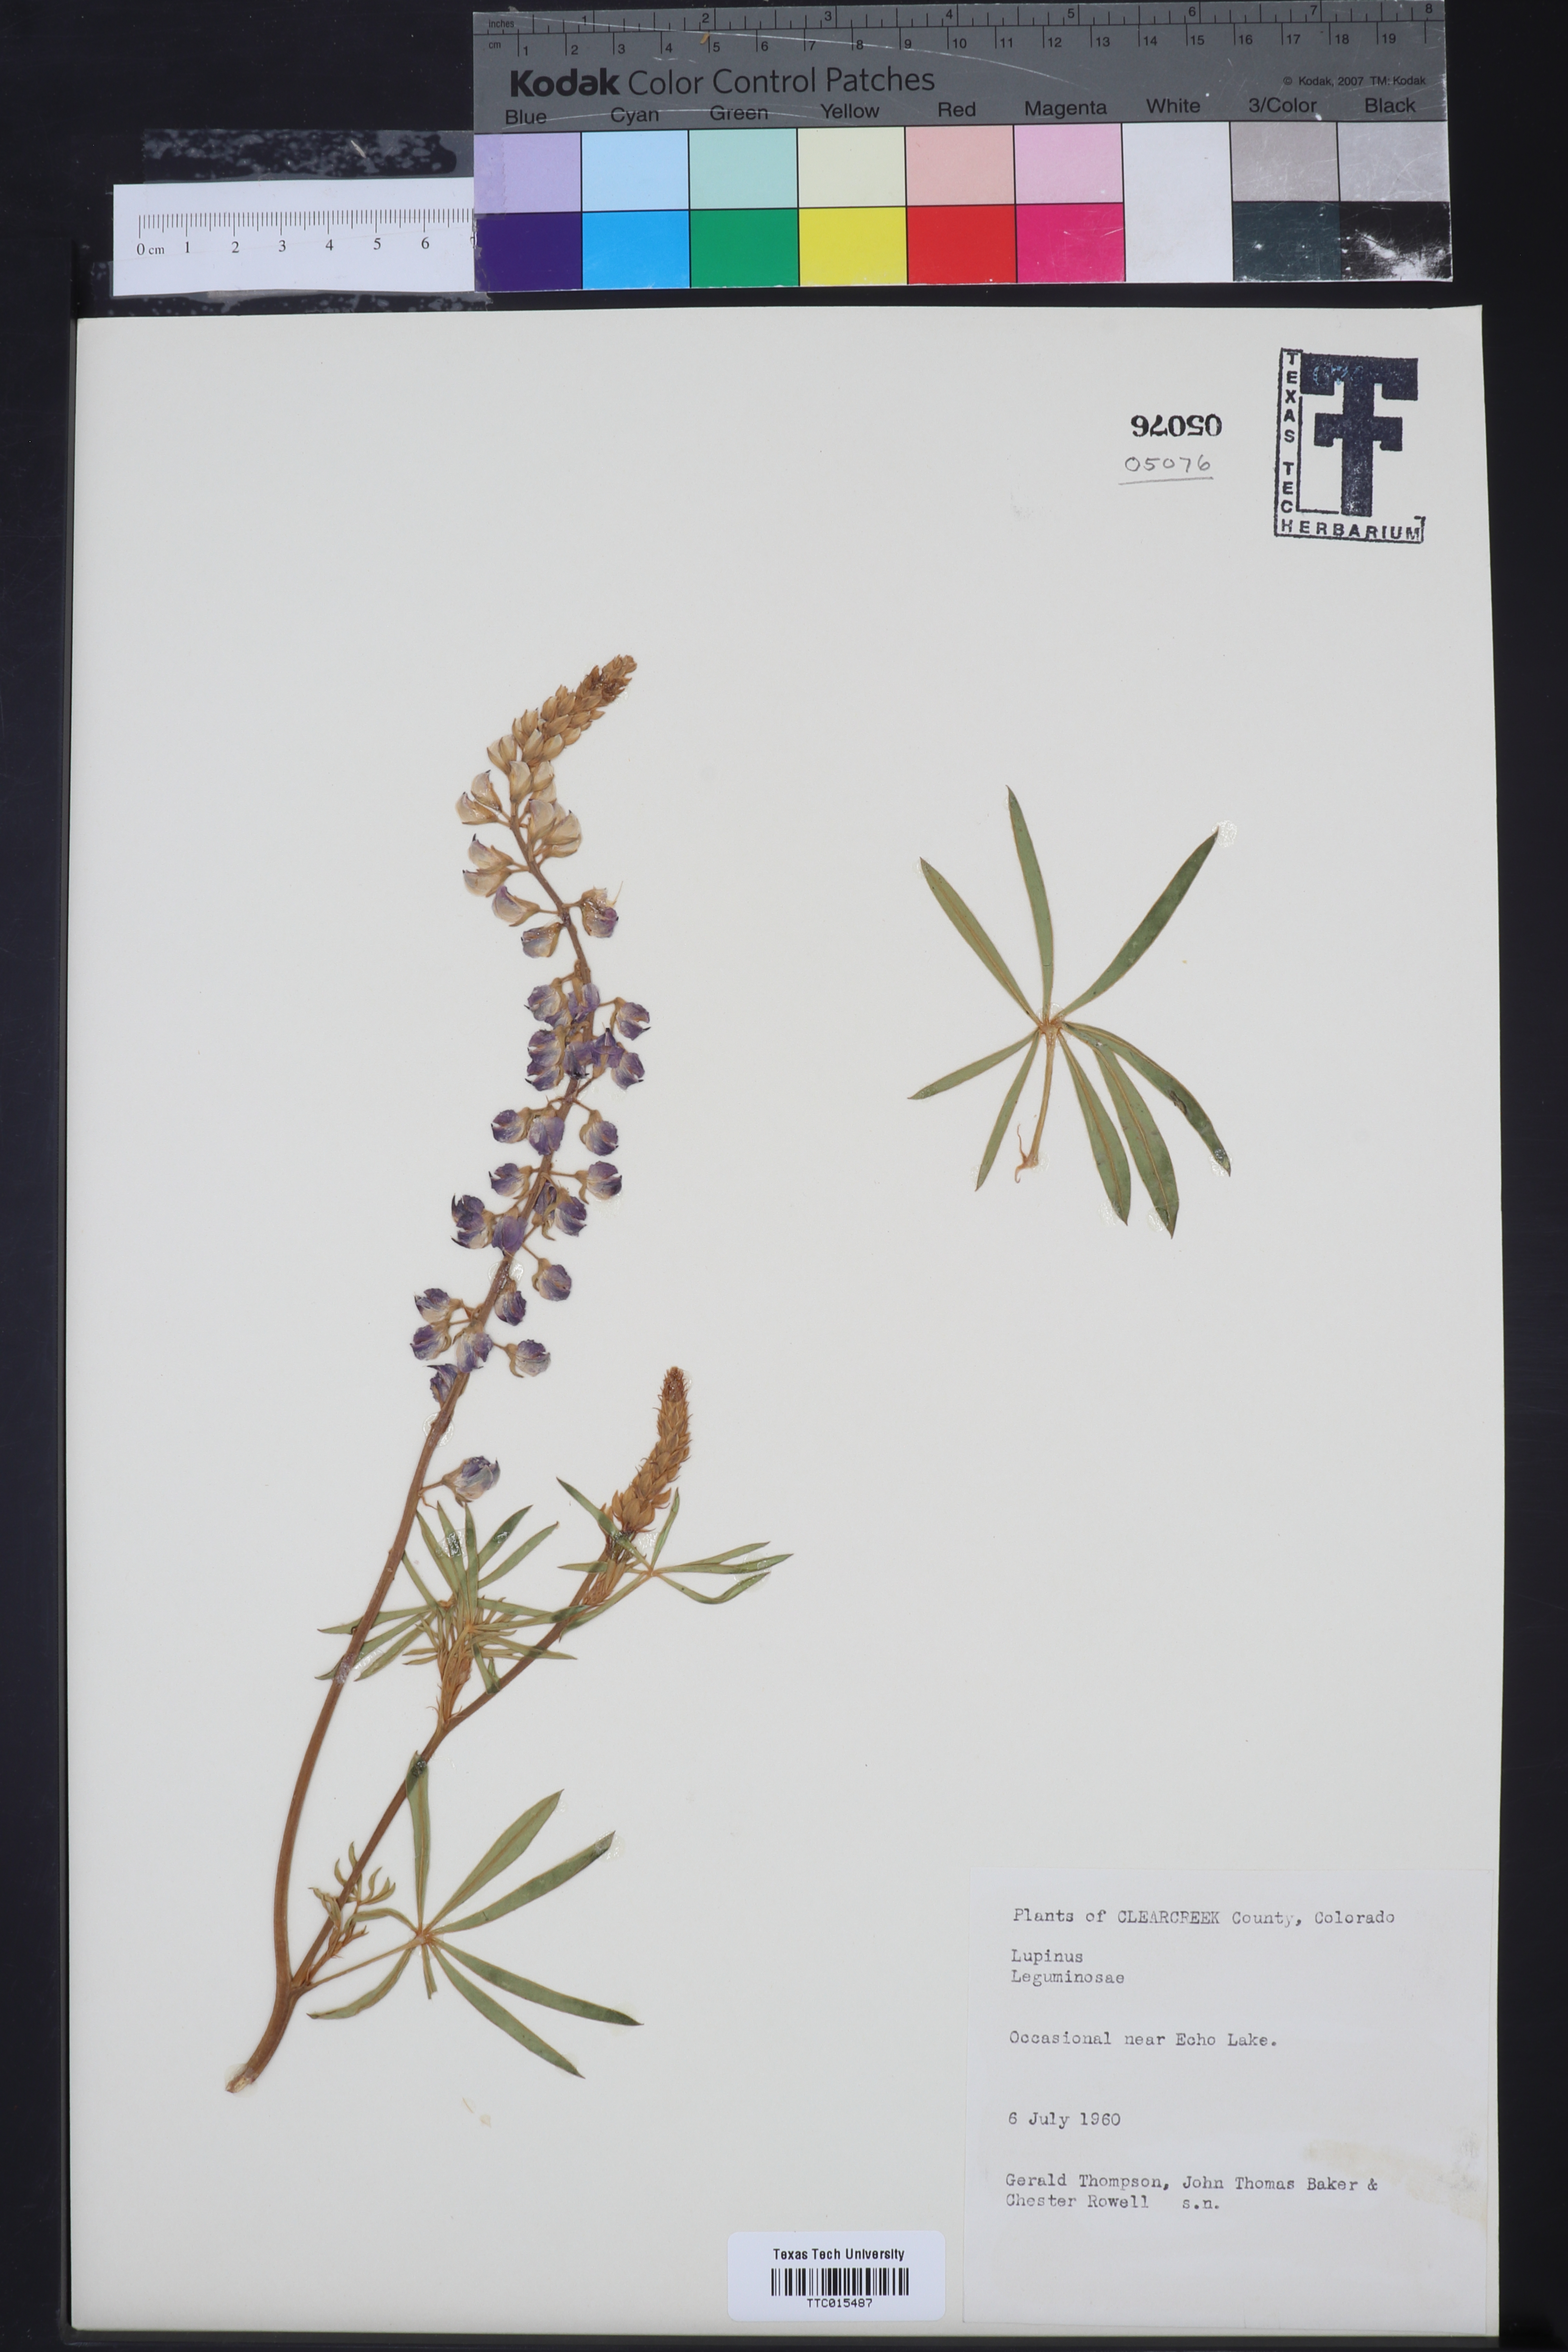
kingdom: Plantae
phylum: Tracheophyta
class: Magnoliopsida
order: Fabales
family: Fabaceae
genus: Lupinus
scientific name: Lupinus
